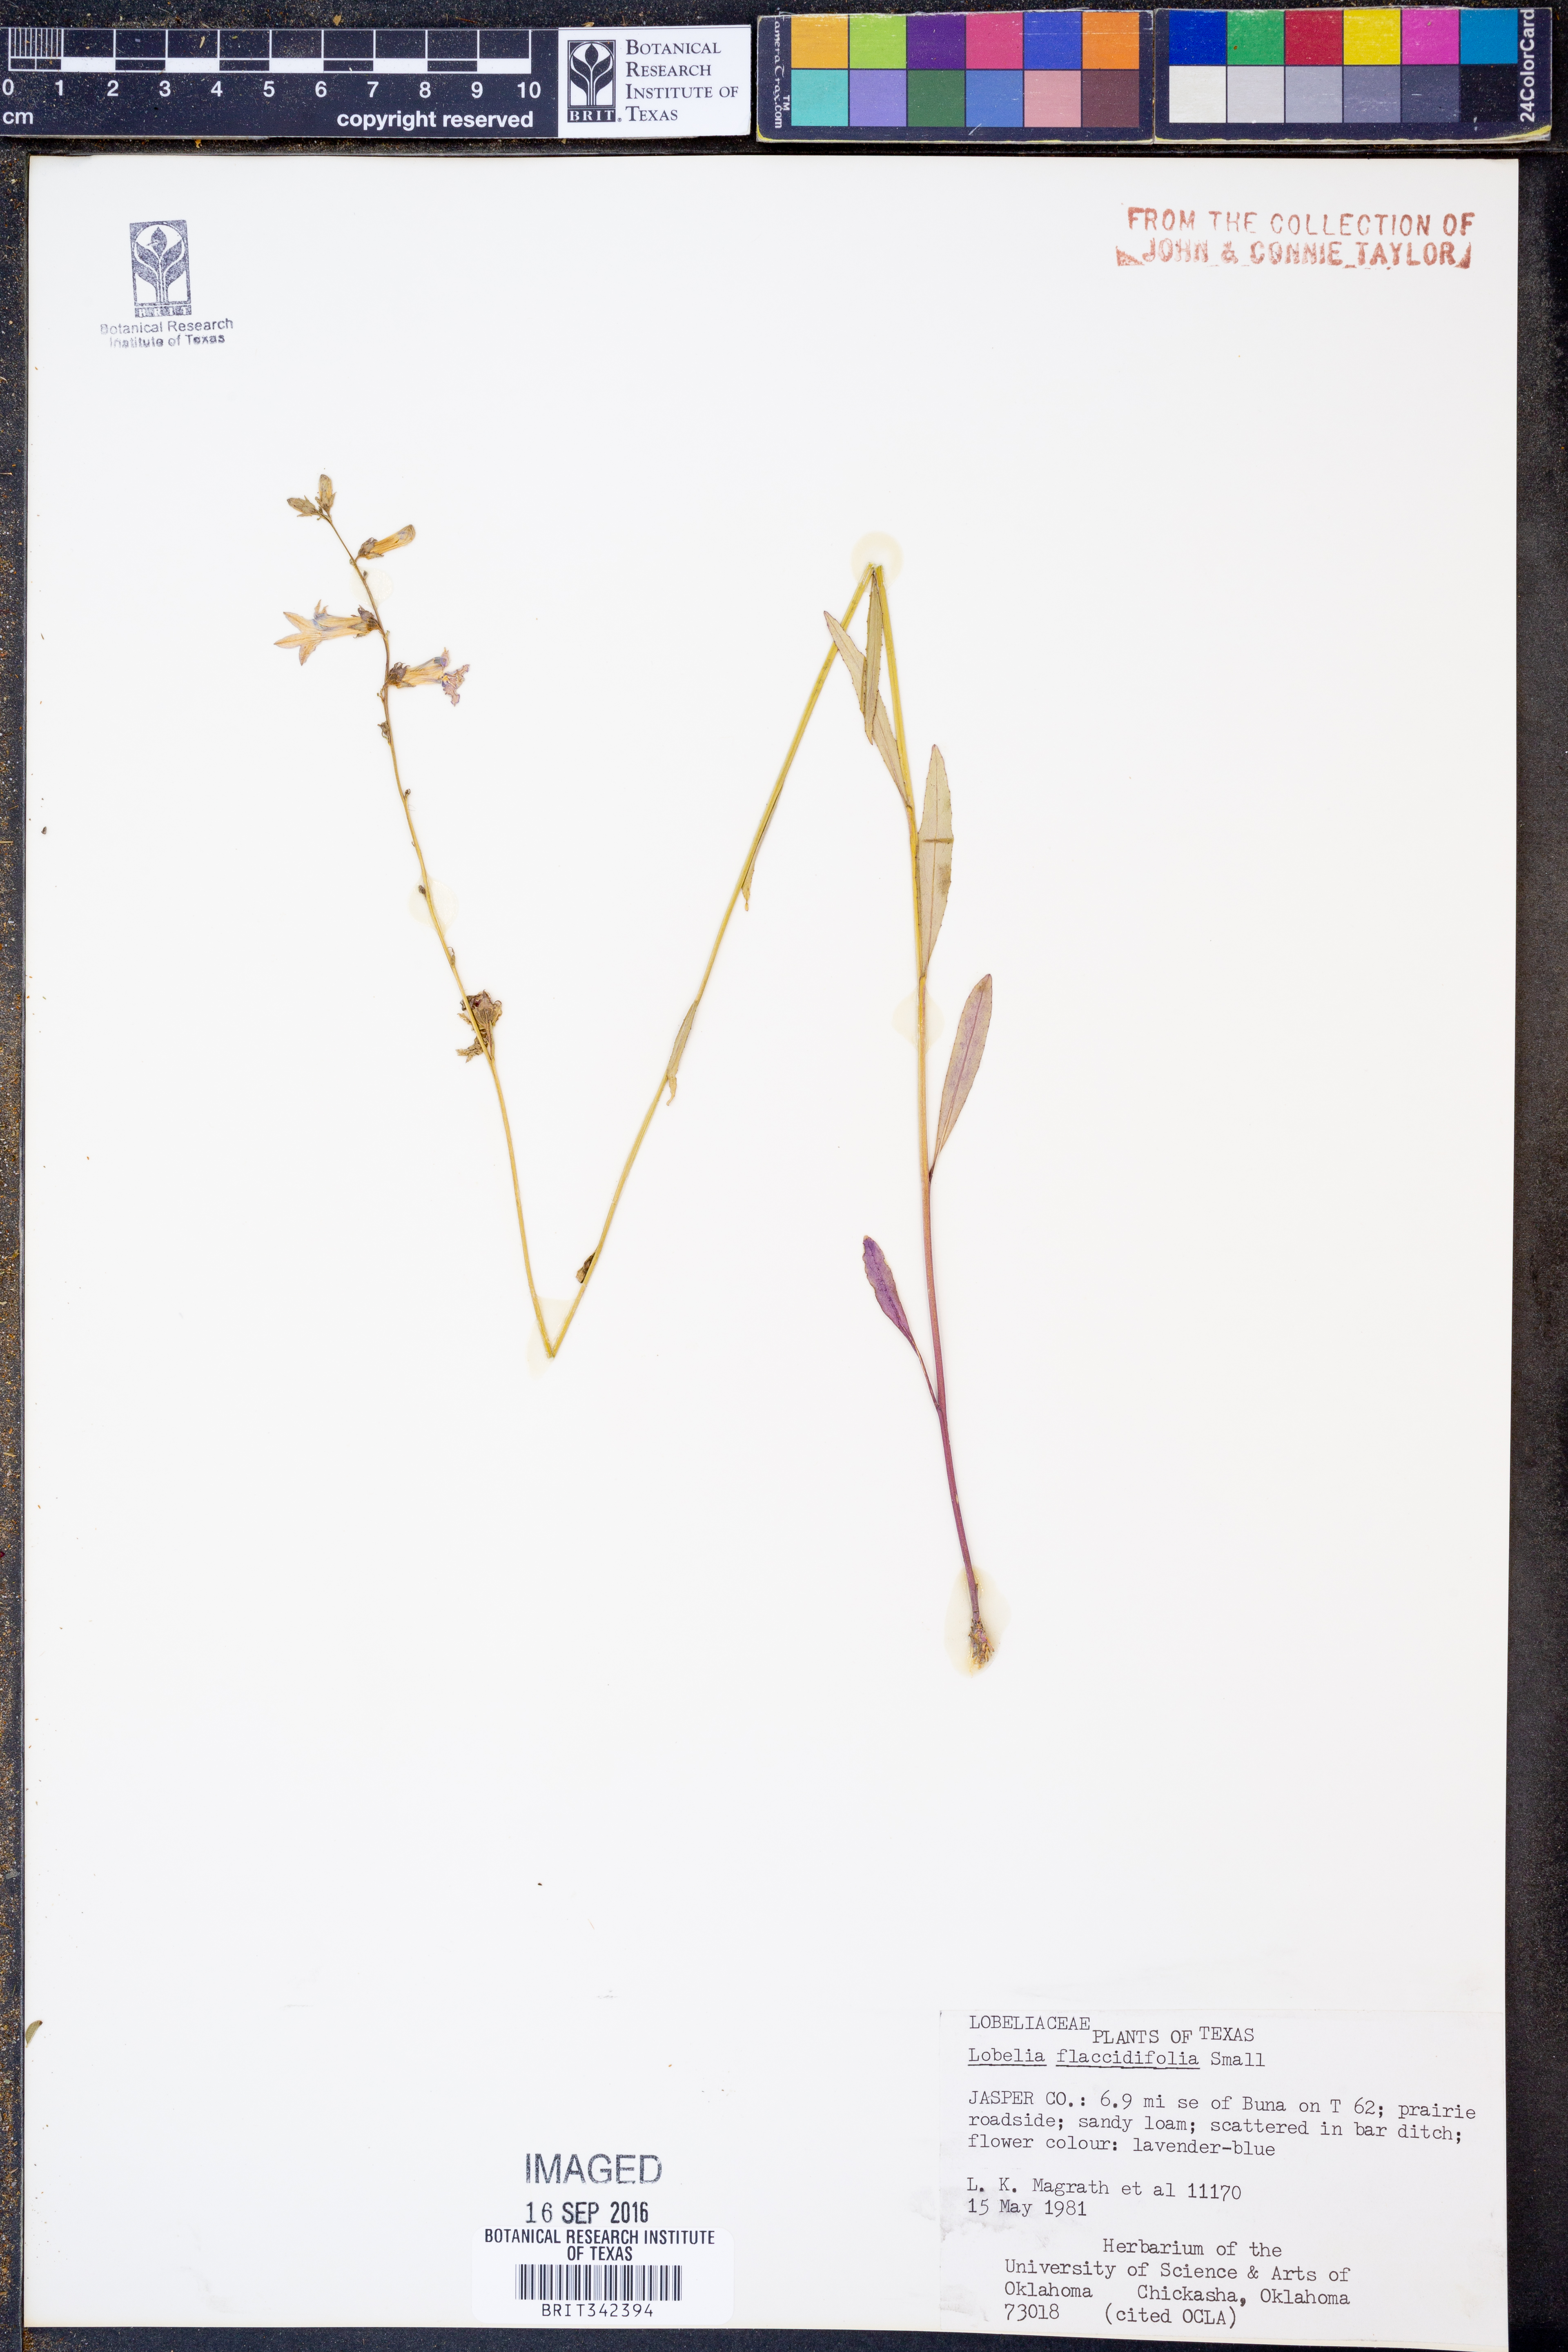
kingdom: Plantae
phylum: Tracheophyta
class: Magnoliopsida
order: Asterales
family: Campanulaceae
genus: Lobelia
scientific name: Lobelia flaccidifolia
